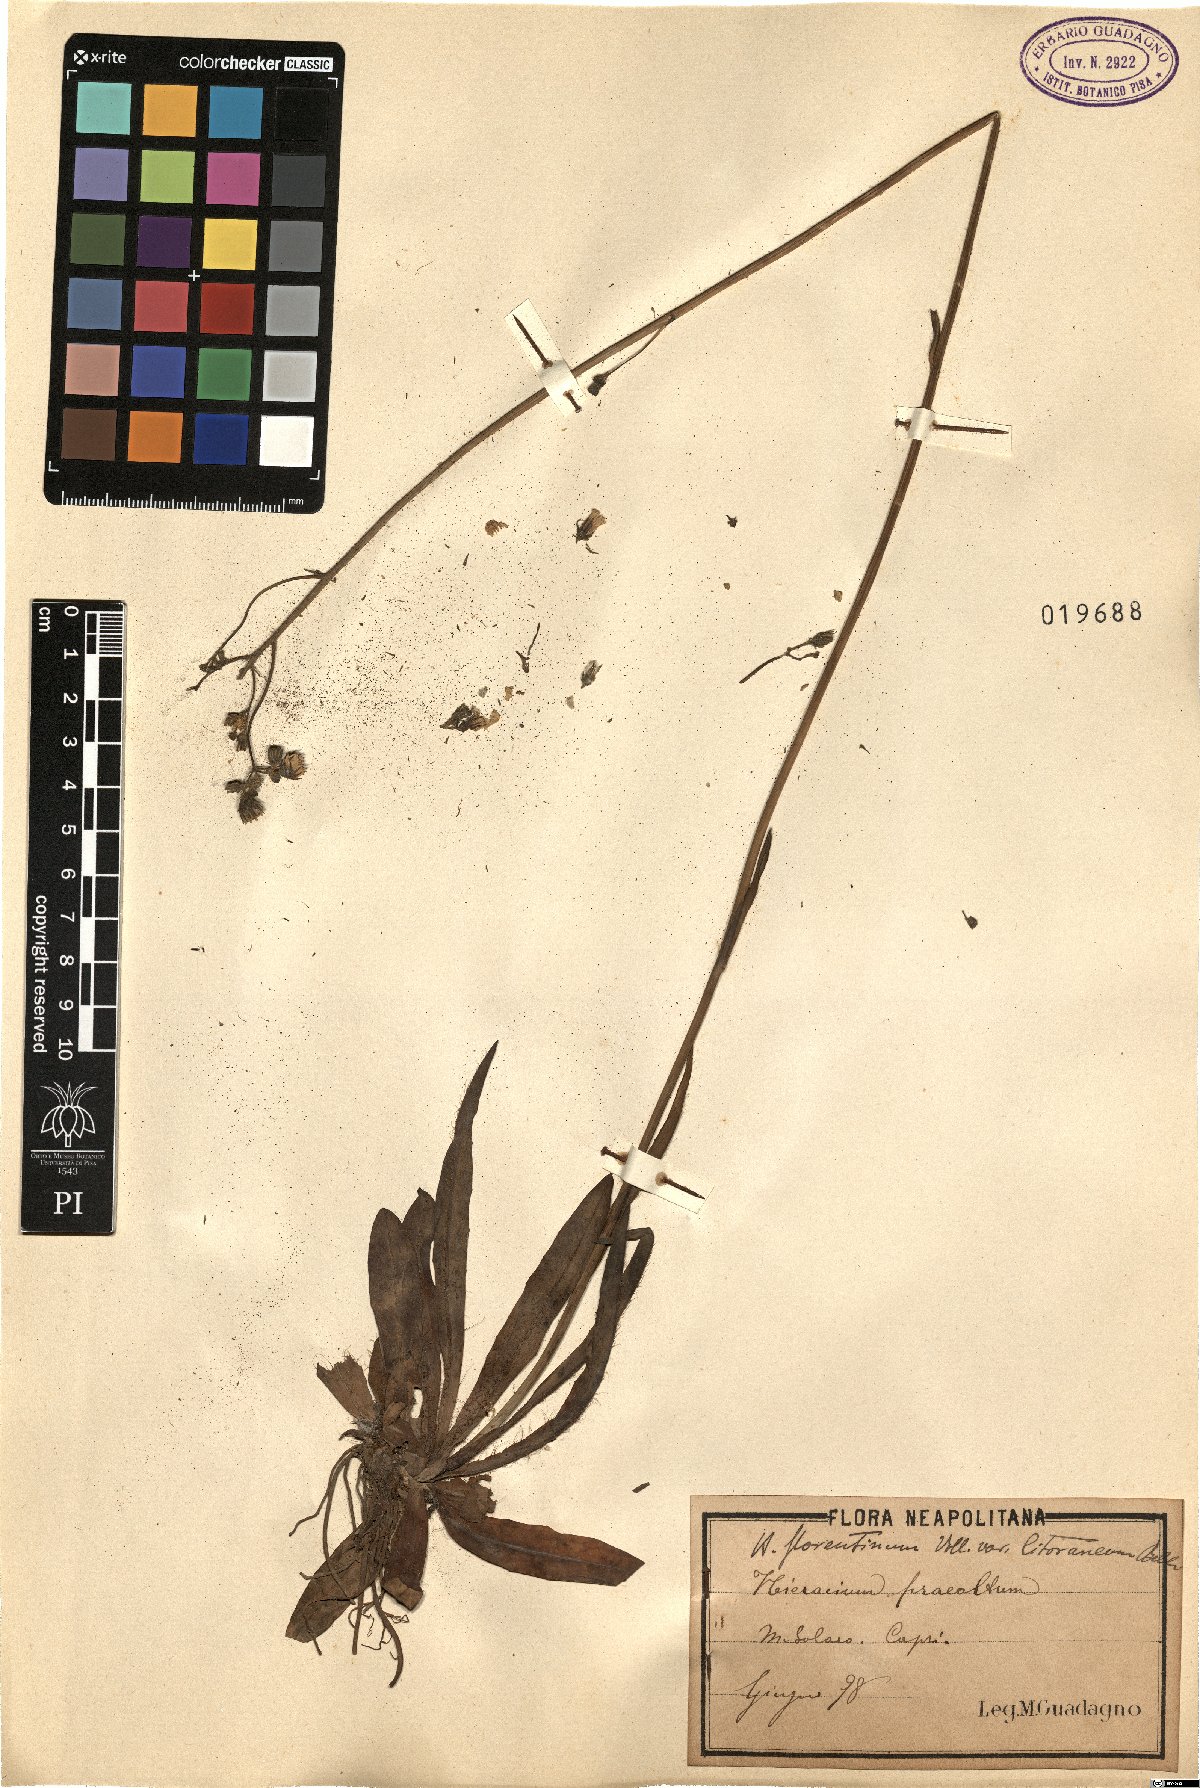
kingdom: Plantae
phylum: Tracheophyta
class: Magnoliopsida
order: Asterales
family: Asteraceae
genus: Pilosella
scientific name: Pilosella piloselloides
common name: Glaucous king-devil
